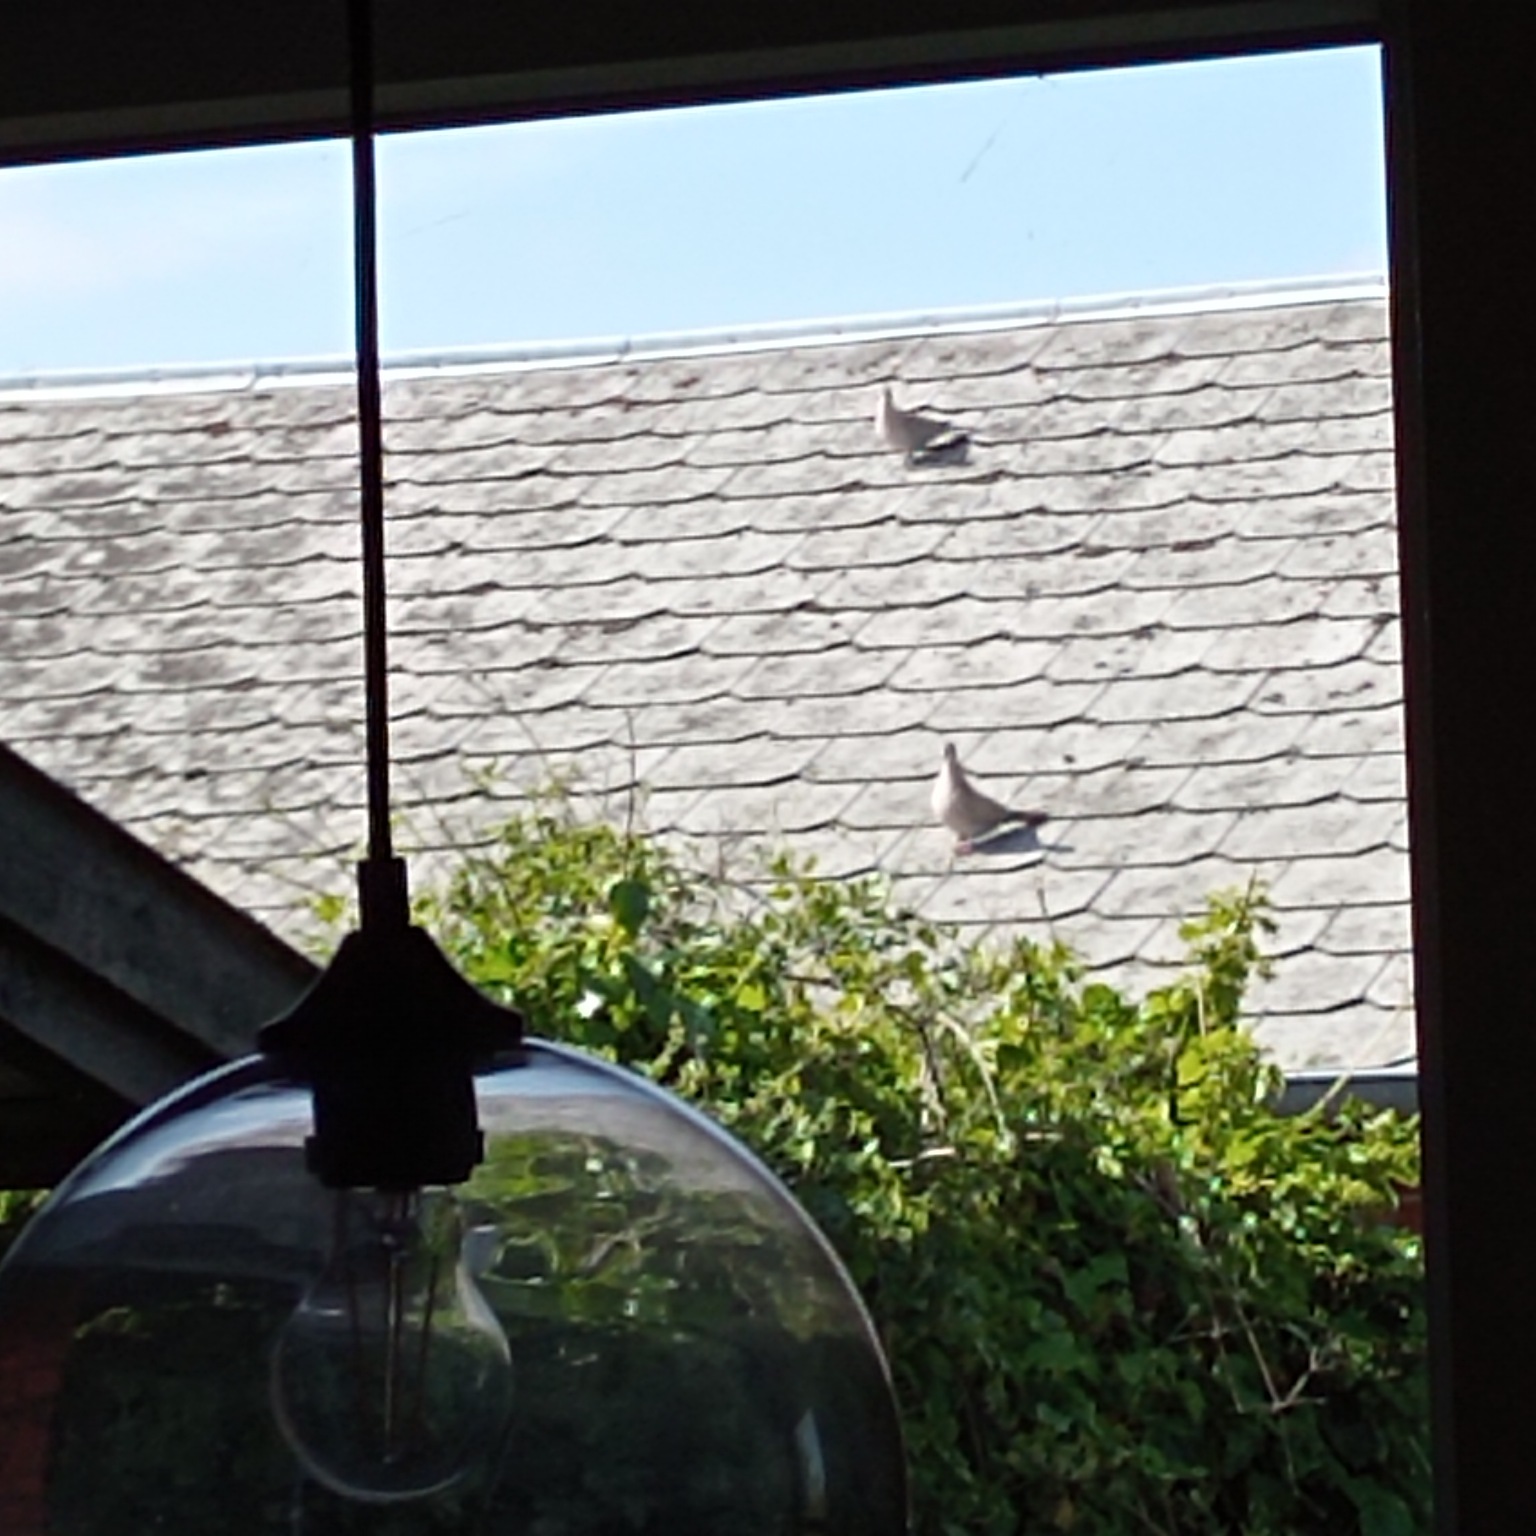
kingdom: Animalia
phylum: Chordata
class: Aves
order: Columbiformes
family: Columbidae
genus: Streptopelia
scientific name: Streptopelia decaocto
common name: Tyrkerdue
